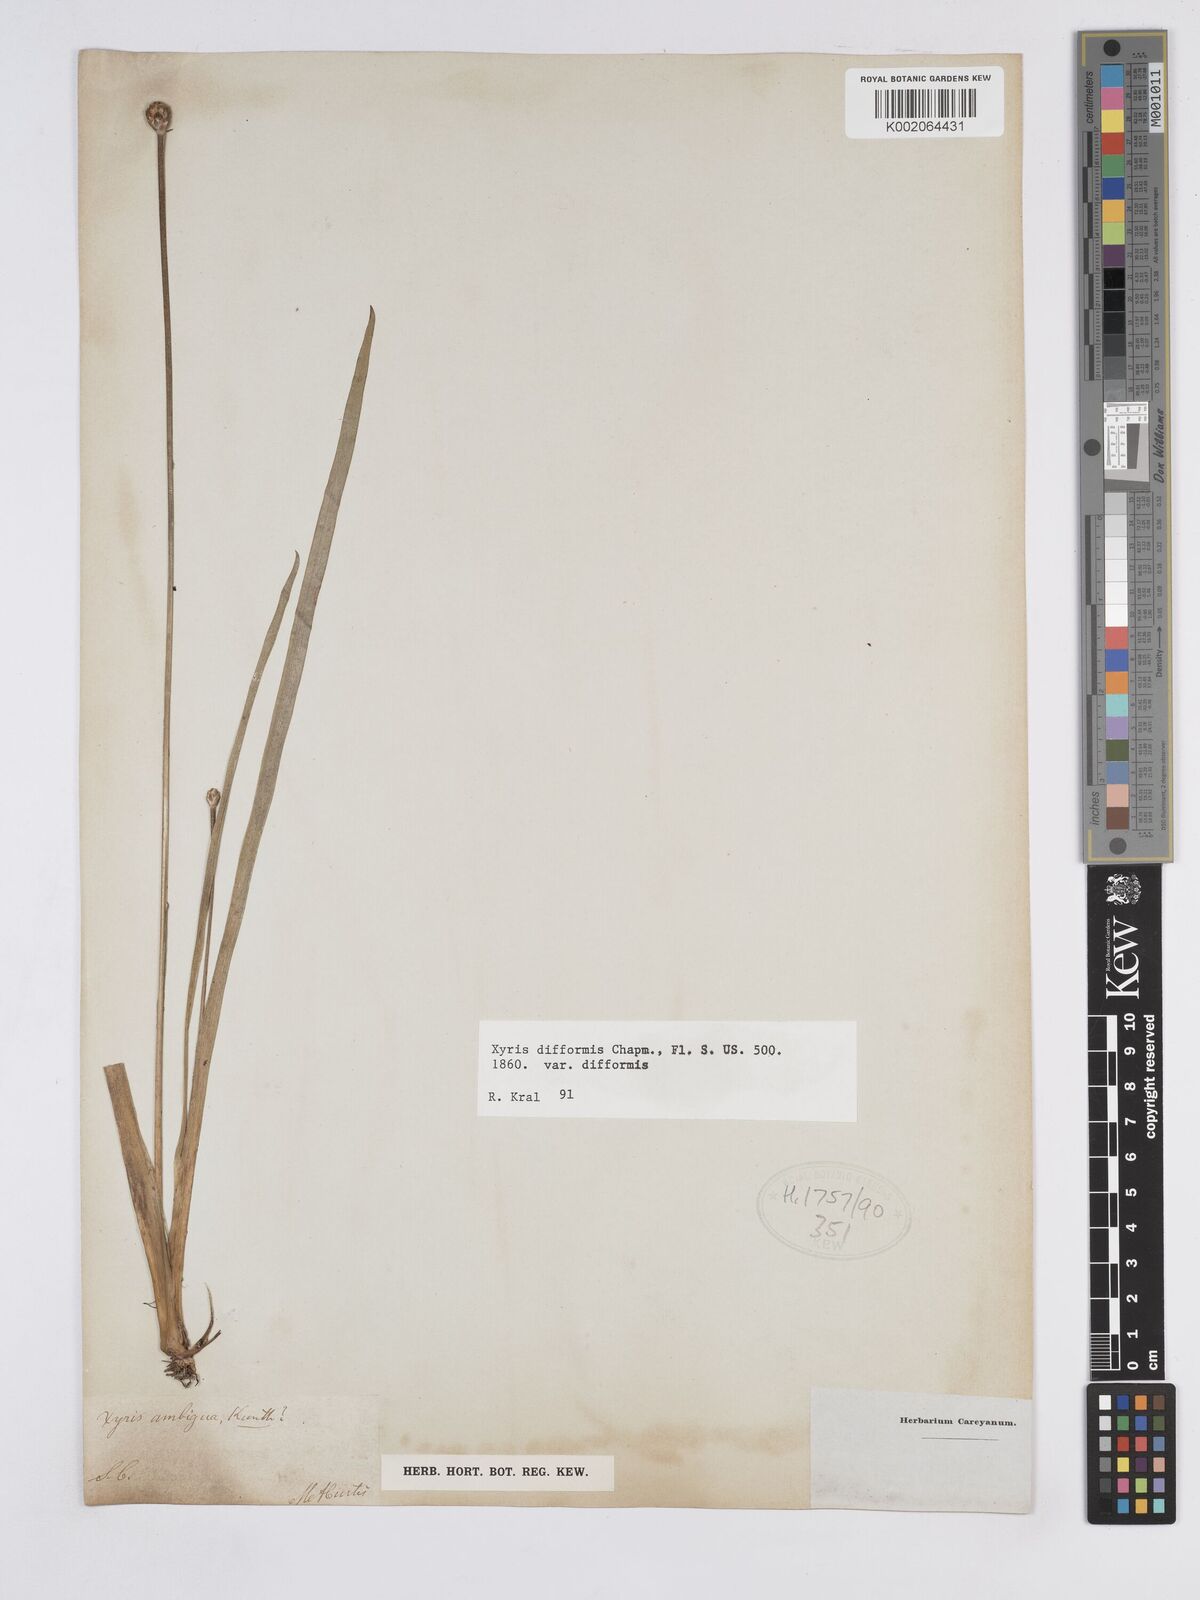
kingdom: Plantae
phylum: Tracheophyta
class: Liliopsida
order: Poales
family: Xyridaceae
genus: Xyris
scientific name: Xyris difformis
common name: Bog yellow-eyed-grass
